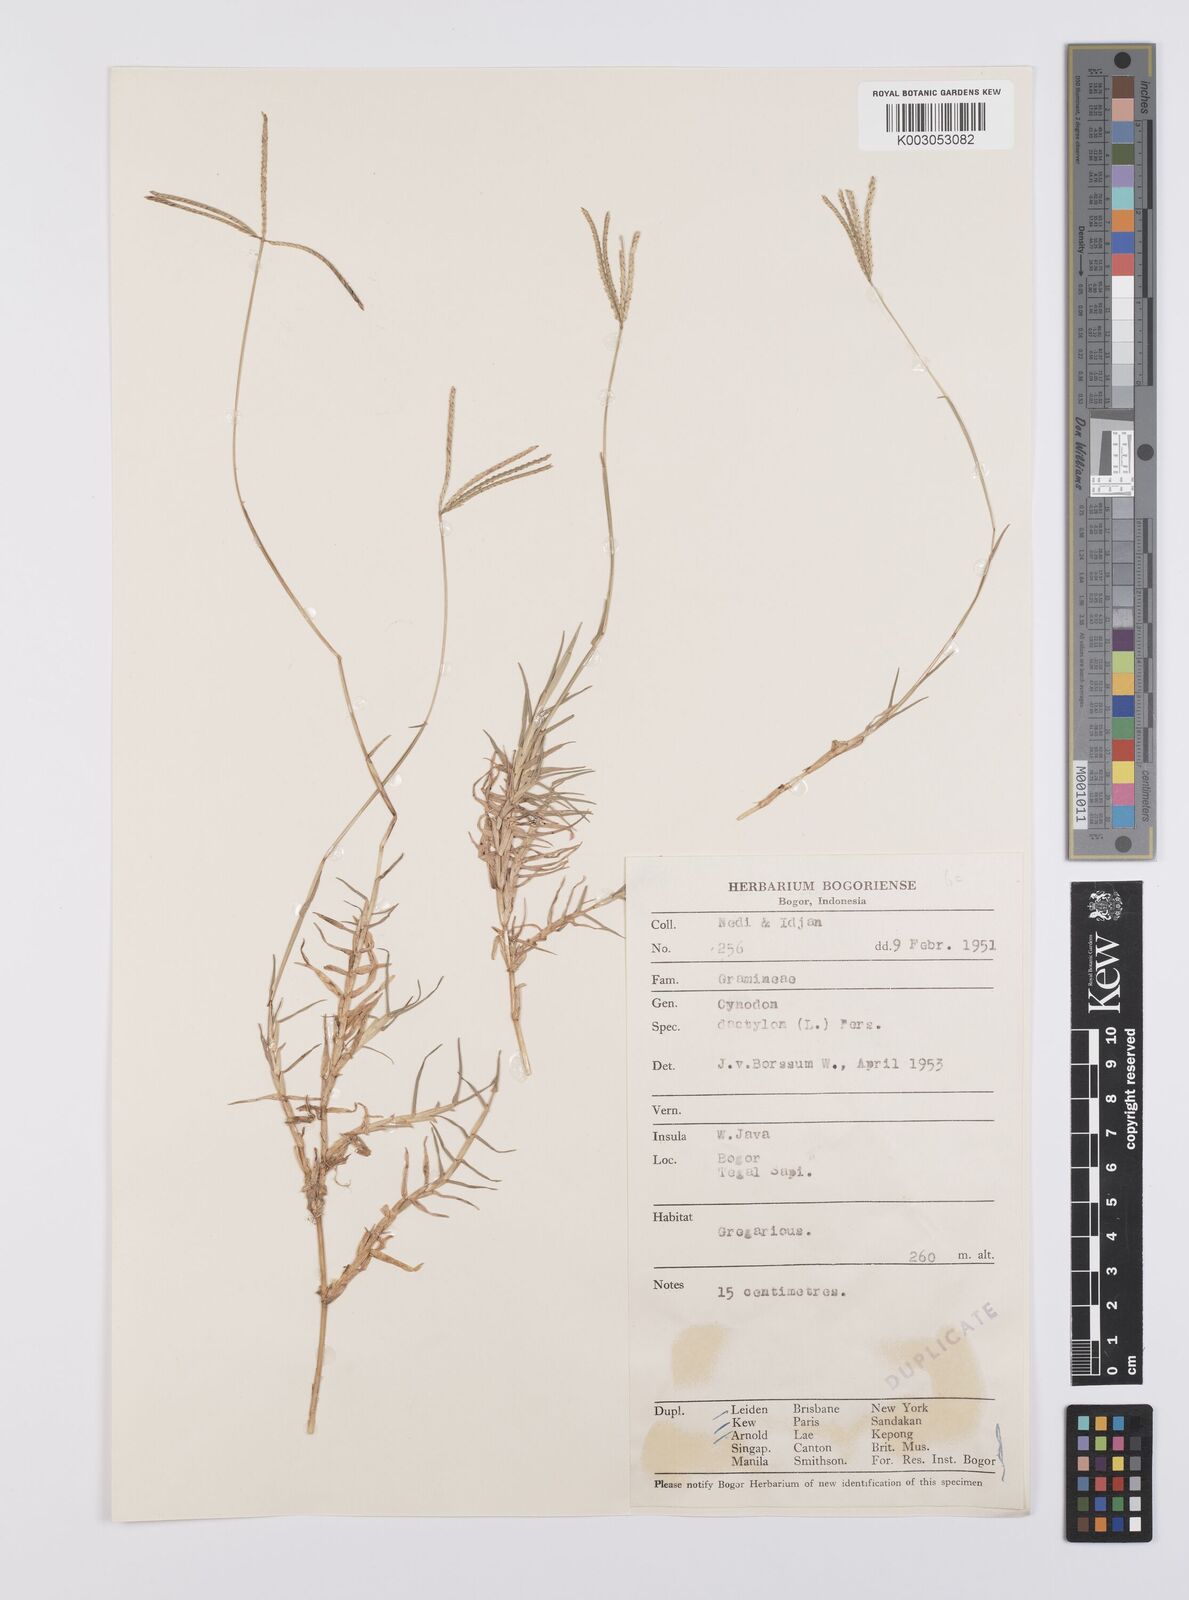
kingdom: Plantae
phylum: Tracheophyta
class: Liliopsida
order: Poales
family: Poaceae
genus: Cynodon
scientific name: Cynodon dactylon
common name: Bermuda grass
